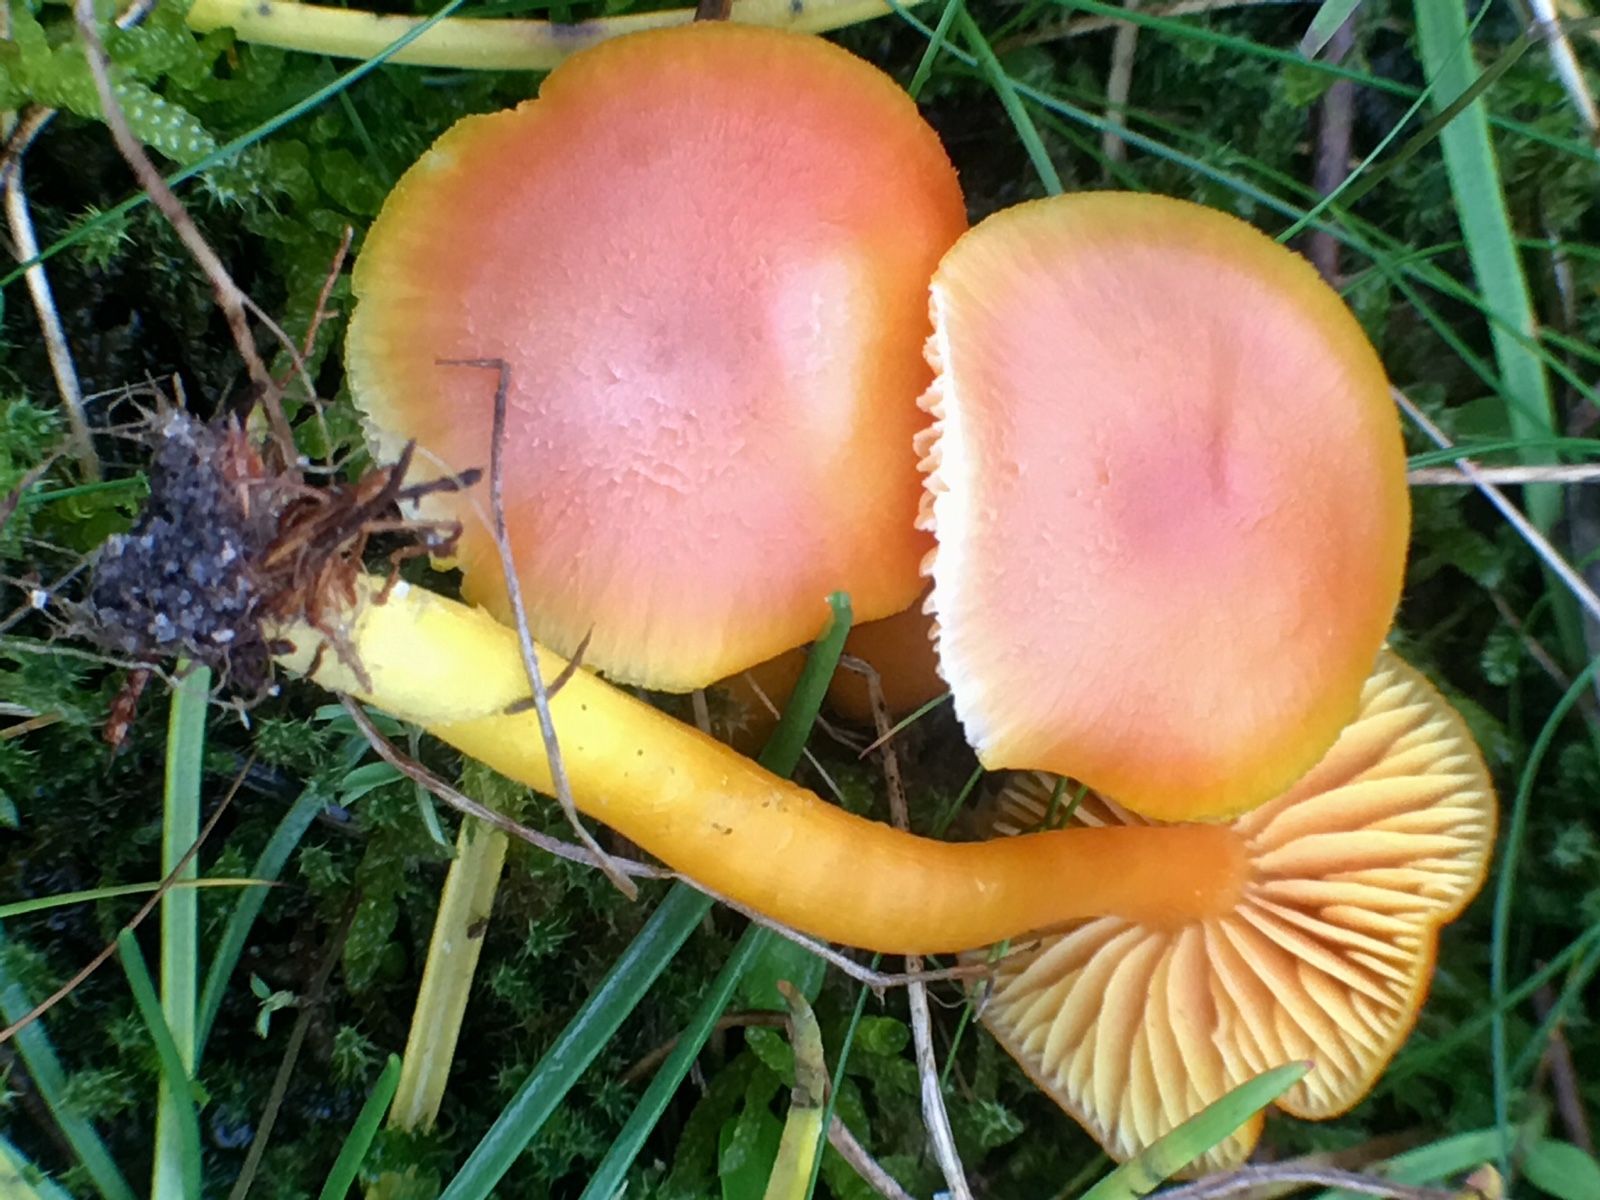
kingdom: Fungi
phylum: Basidiomycota
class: Agaricomycetes
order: Agaricales
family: Hygrophoraceae
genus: Hygrocybe
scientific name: Hygrocybe reidii
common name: honning-vokshat
